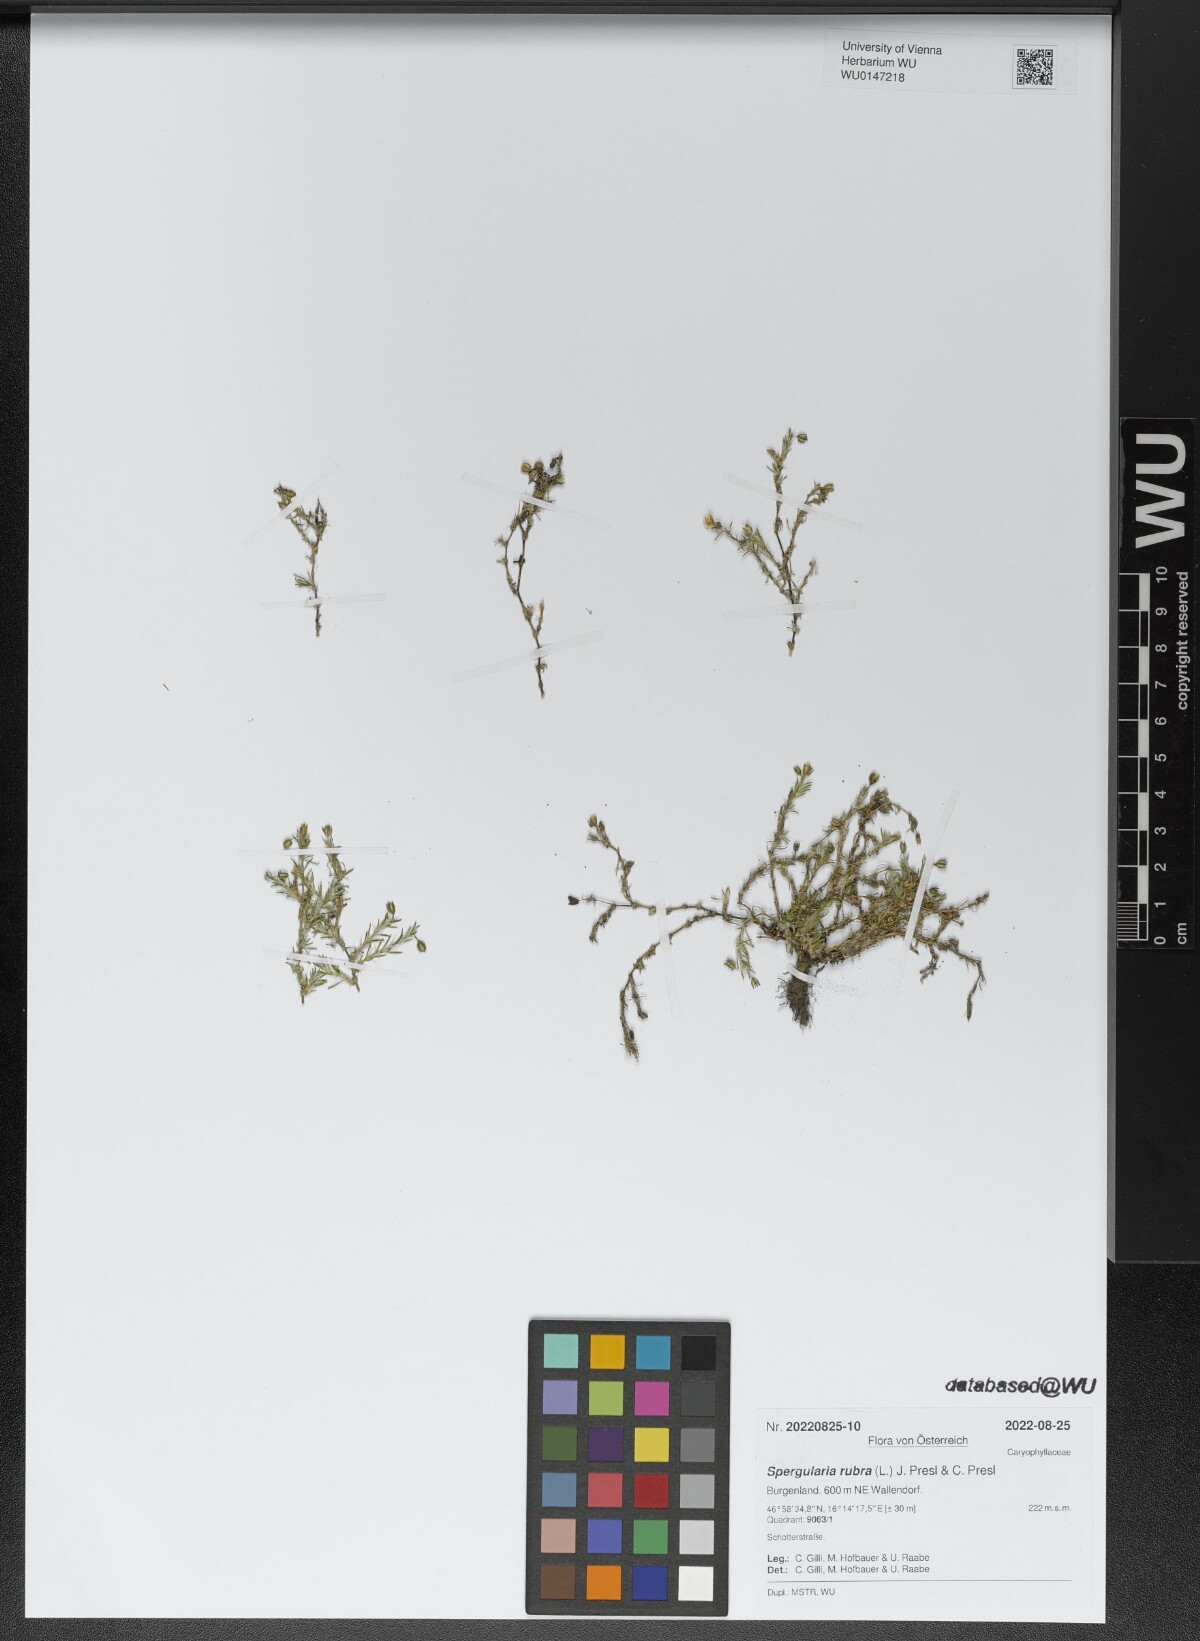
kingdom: Plantae
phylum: Tracheophyta
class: Magnoliopsida
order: Caryophyllales
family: Caryophyllaceae
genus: Spergularia
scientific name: Spergularia rubra
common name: Red sand-spurrey
